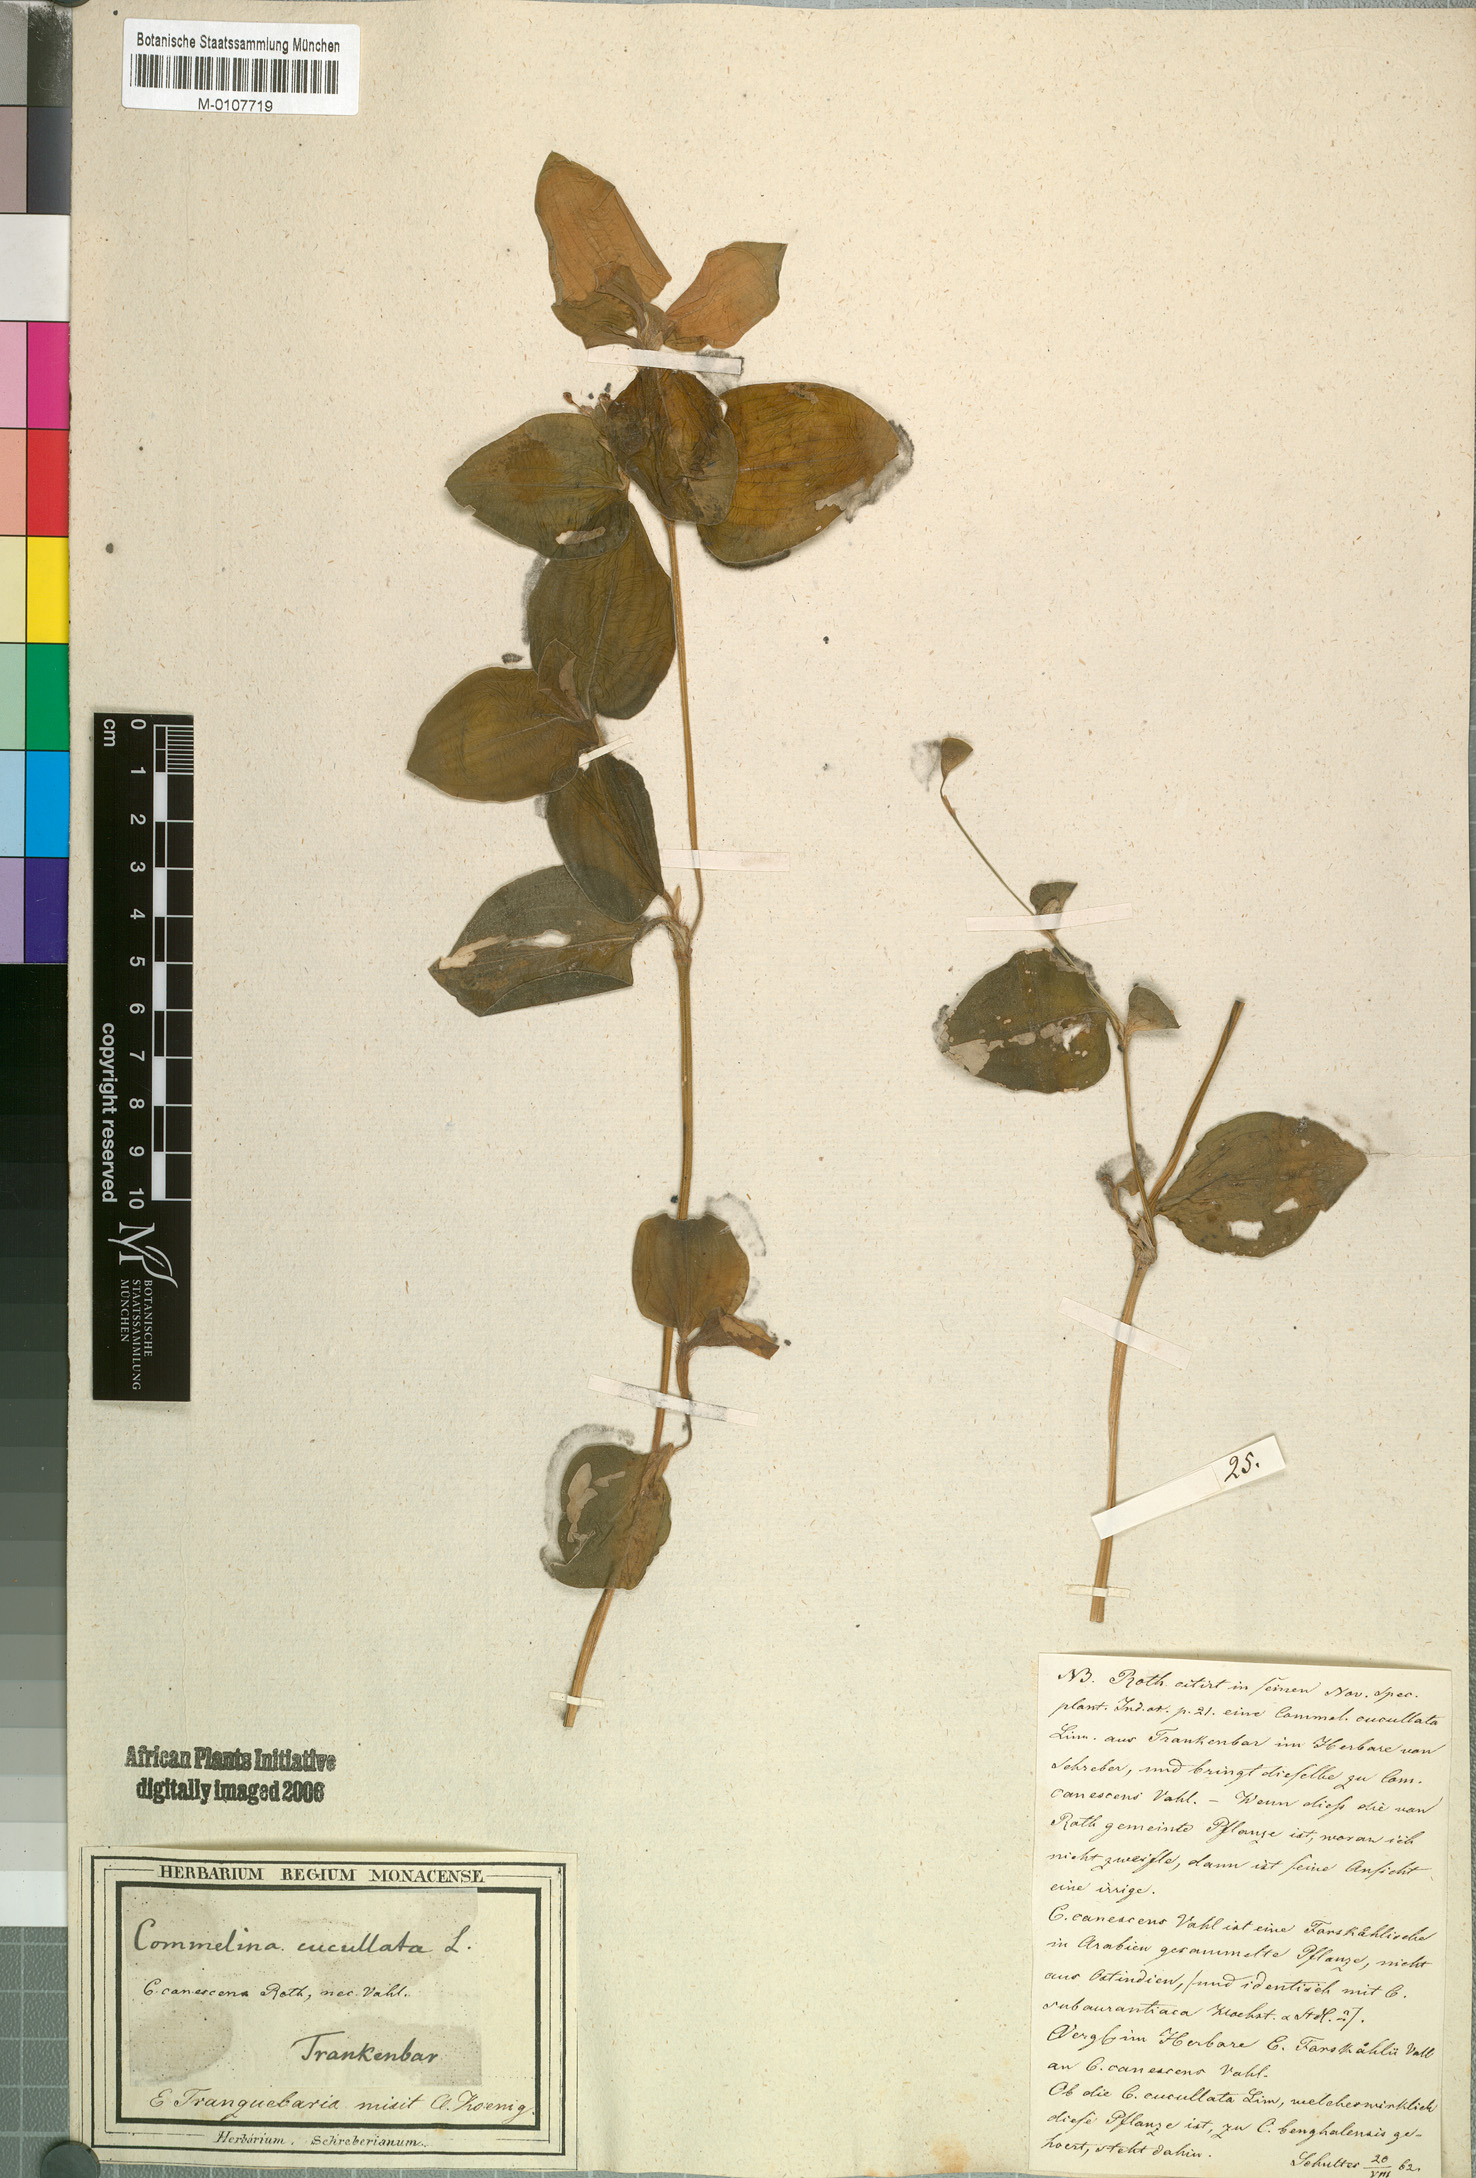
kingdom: Plantae
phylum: Tracheophyta
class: Liliopsida
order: Commelinales
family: Commelinaceae
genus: Commelina
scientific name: Commelina benghalensis
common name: Jio
